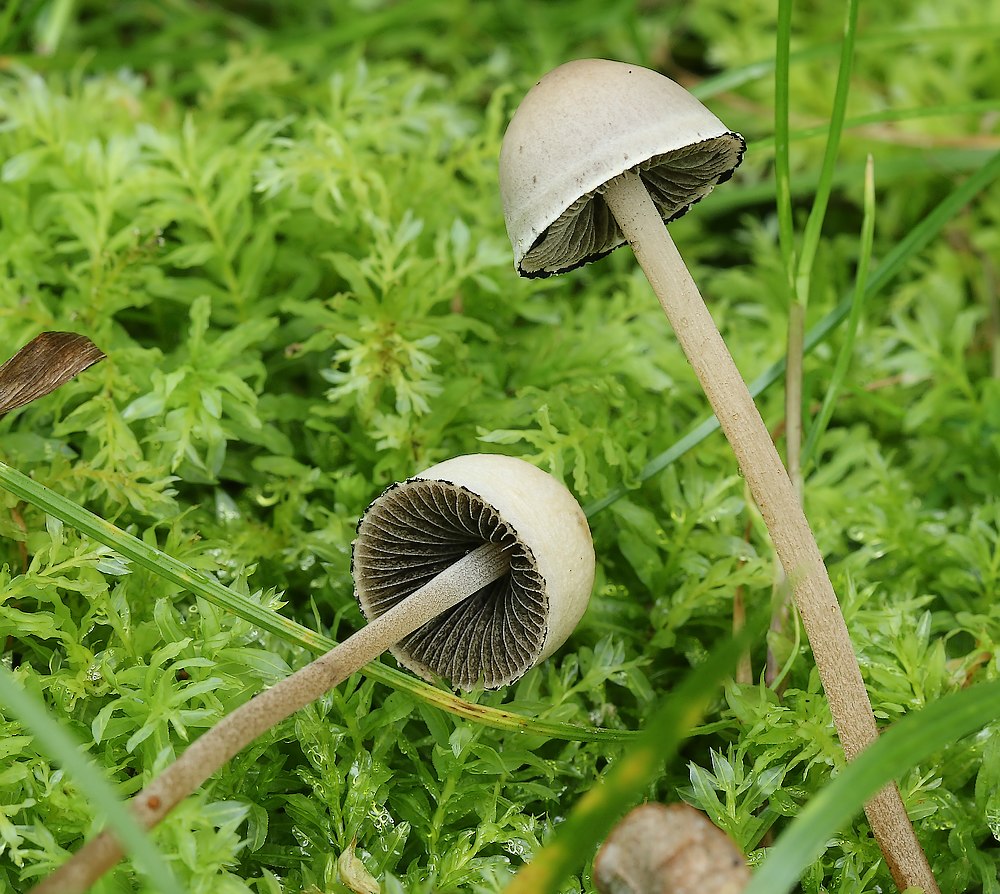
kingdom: Fungi
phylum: Basidiomycota
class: Agaricomycetes
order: Agaricales
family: Bolbitiaceae
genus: Panaeolus
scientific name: Panaeolus papilionaceus
